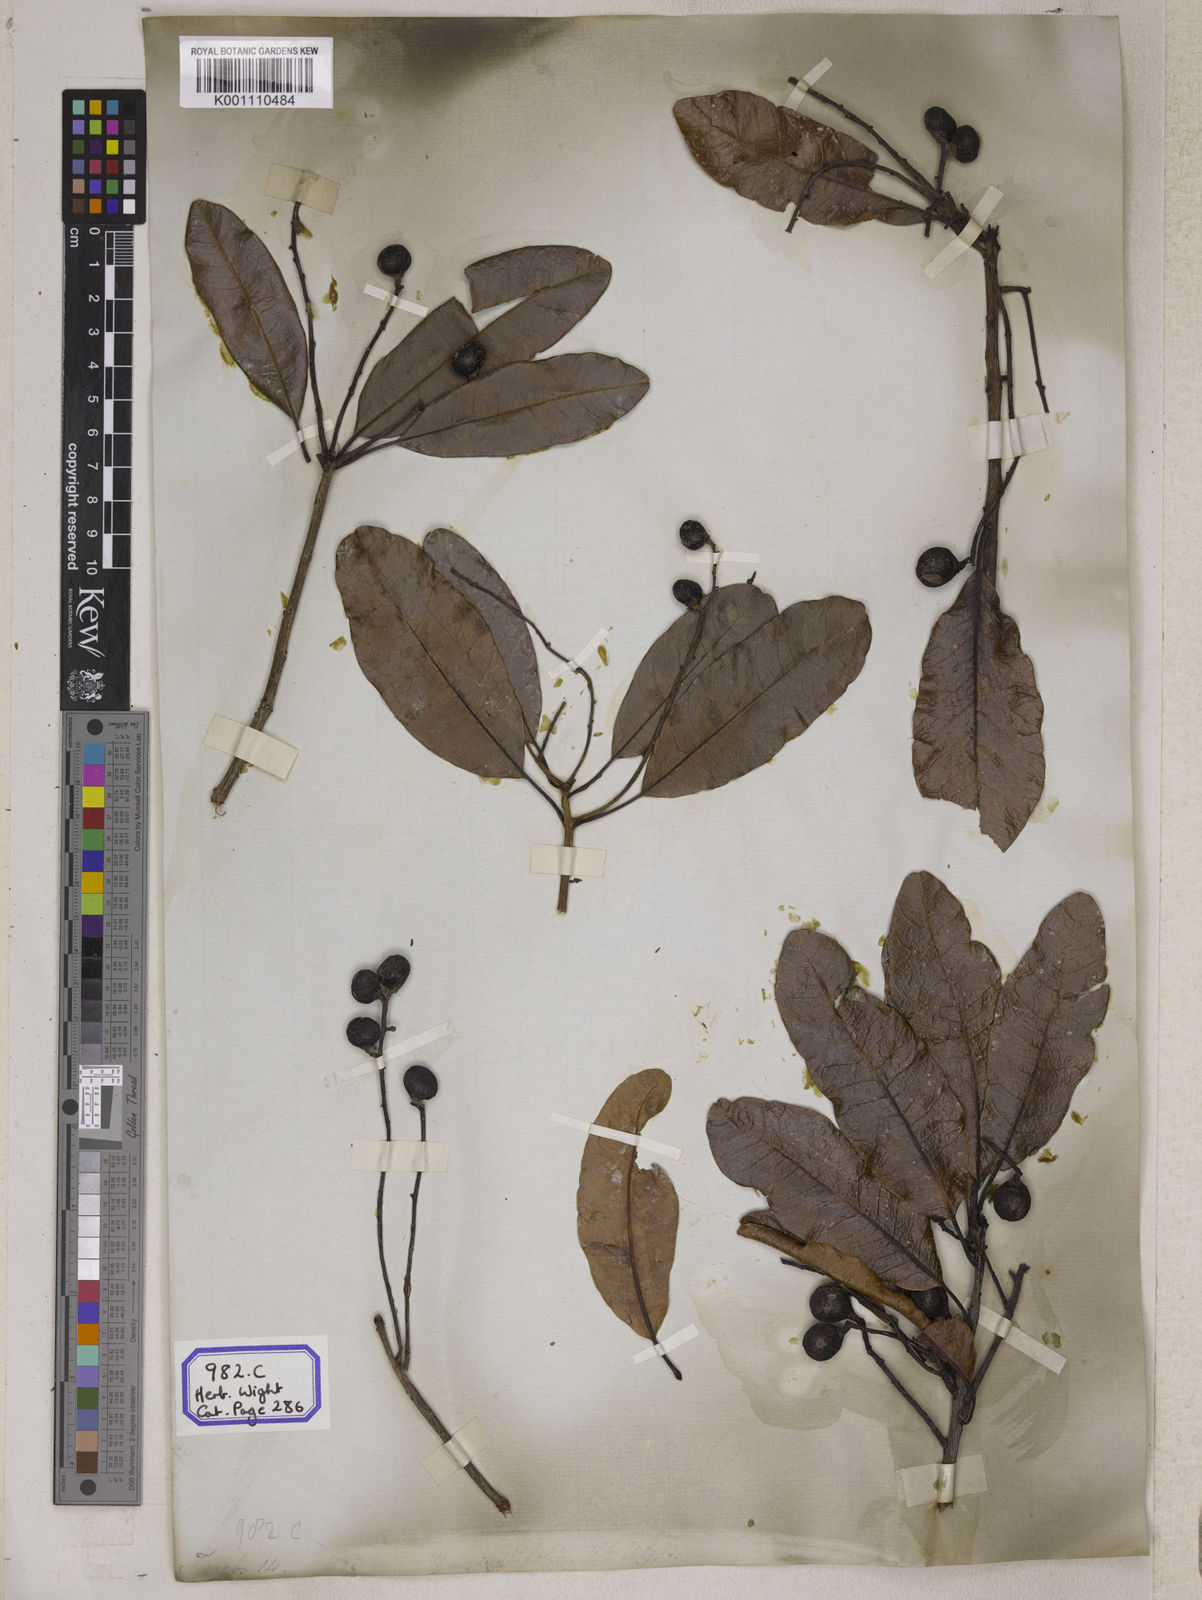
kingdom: Plantae
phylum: Tracheophyta
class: Magnoliopsida
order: Sapindales
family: Anacardiaceae
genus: Buchanania
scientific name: Buchanania axillaris
